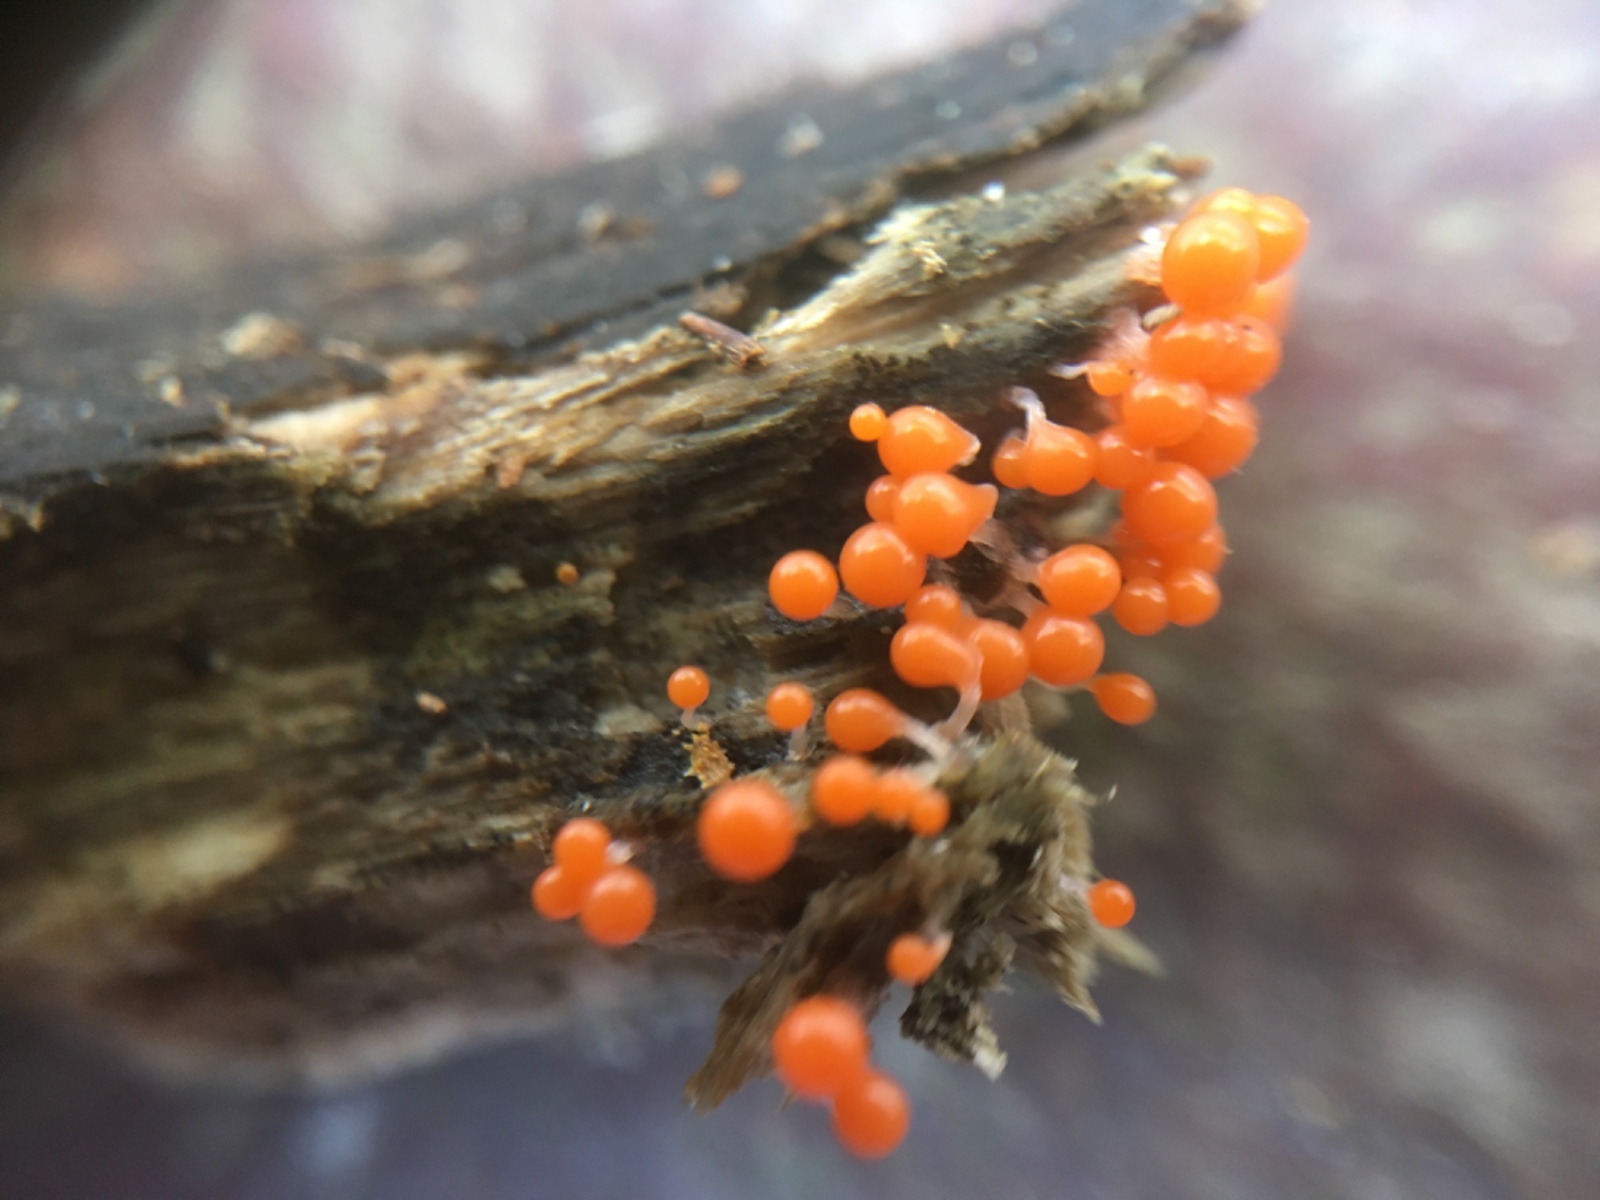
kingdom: Protozoa
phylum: Mycetozoa
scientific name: Mycetozoa
